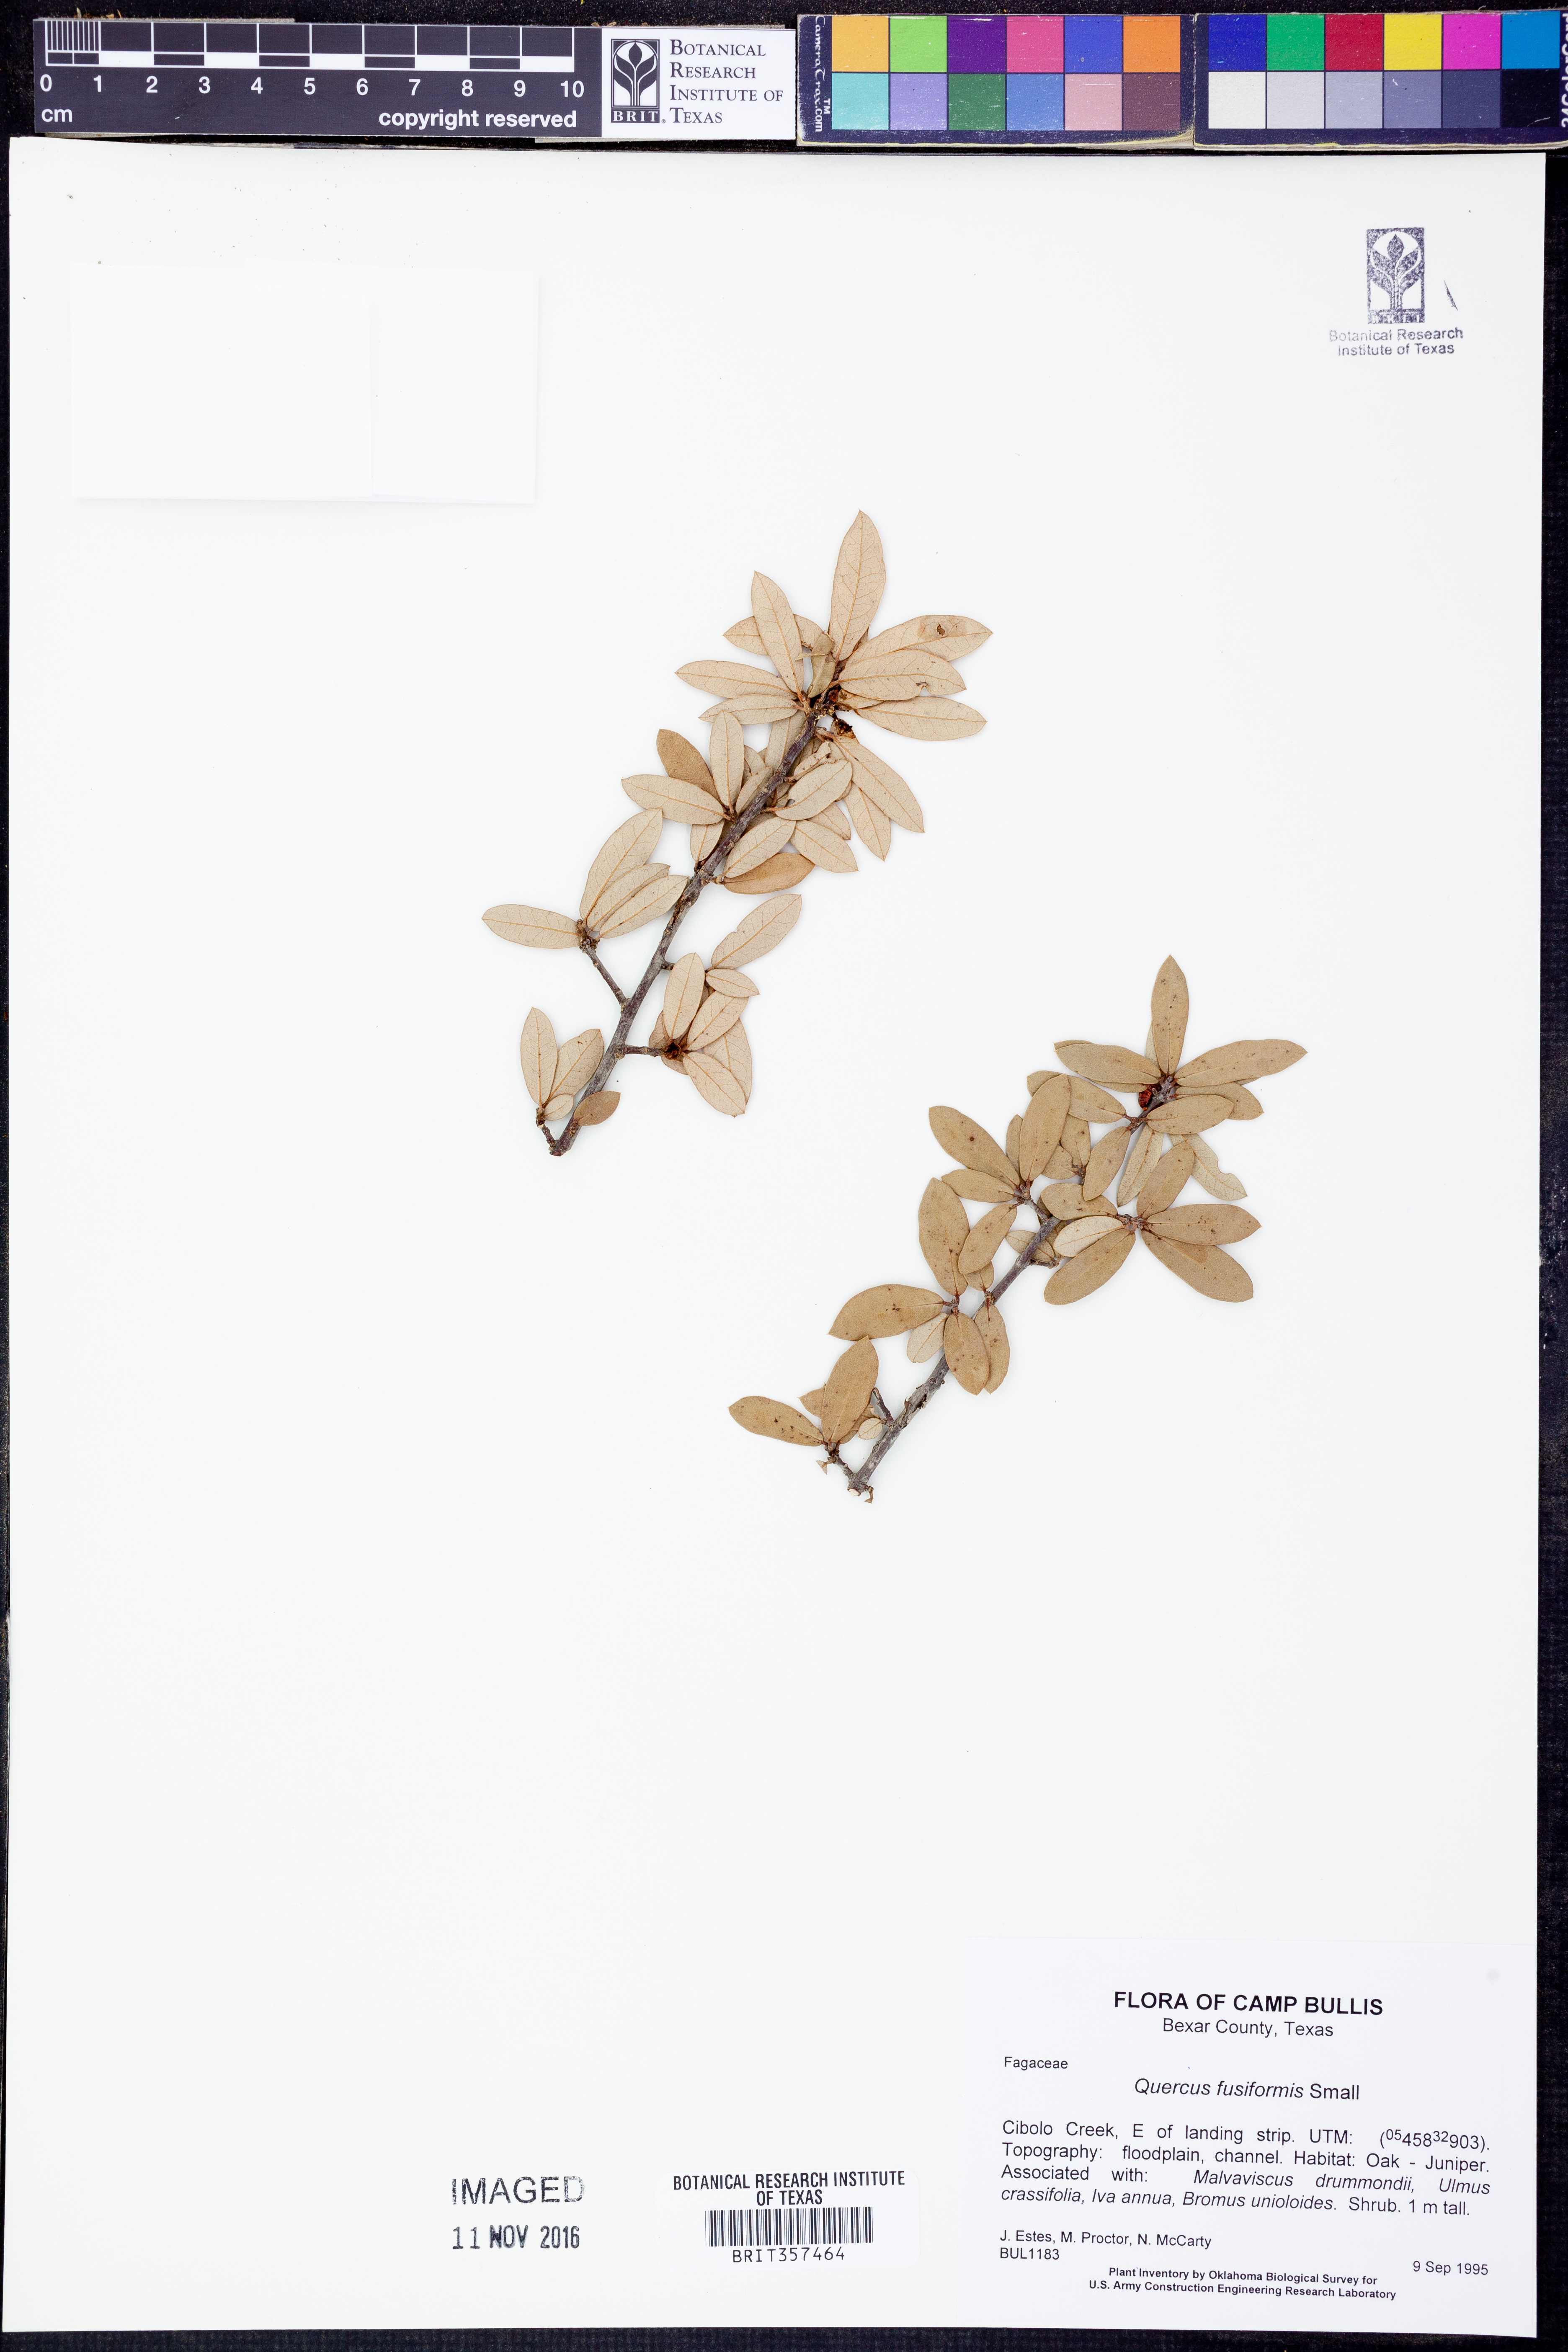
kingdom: Plantae
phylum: Tracheophyta
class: Magnoliopsida
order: Fagales
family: Fagaceae
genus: Quercus
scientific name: Quercus fusiformis
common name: Texas live oak
